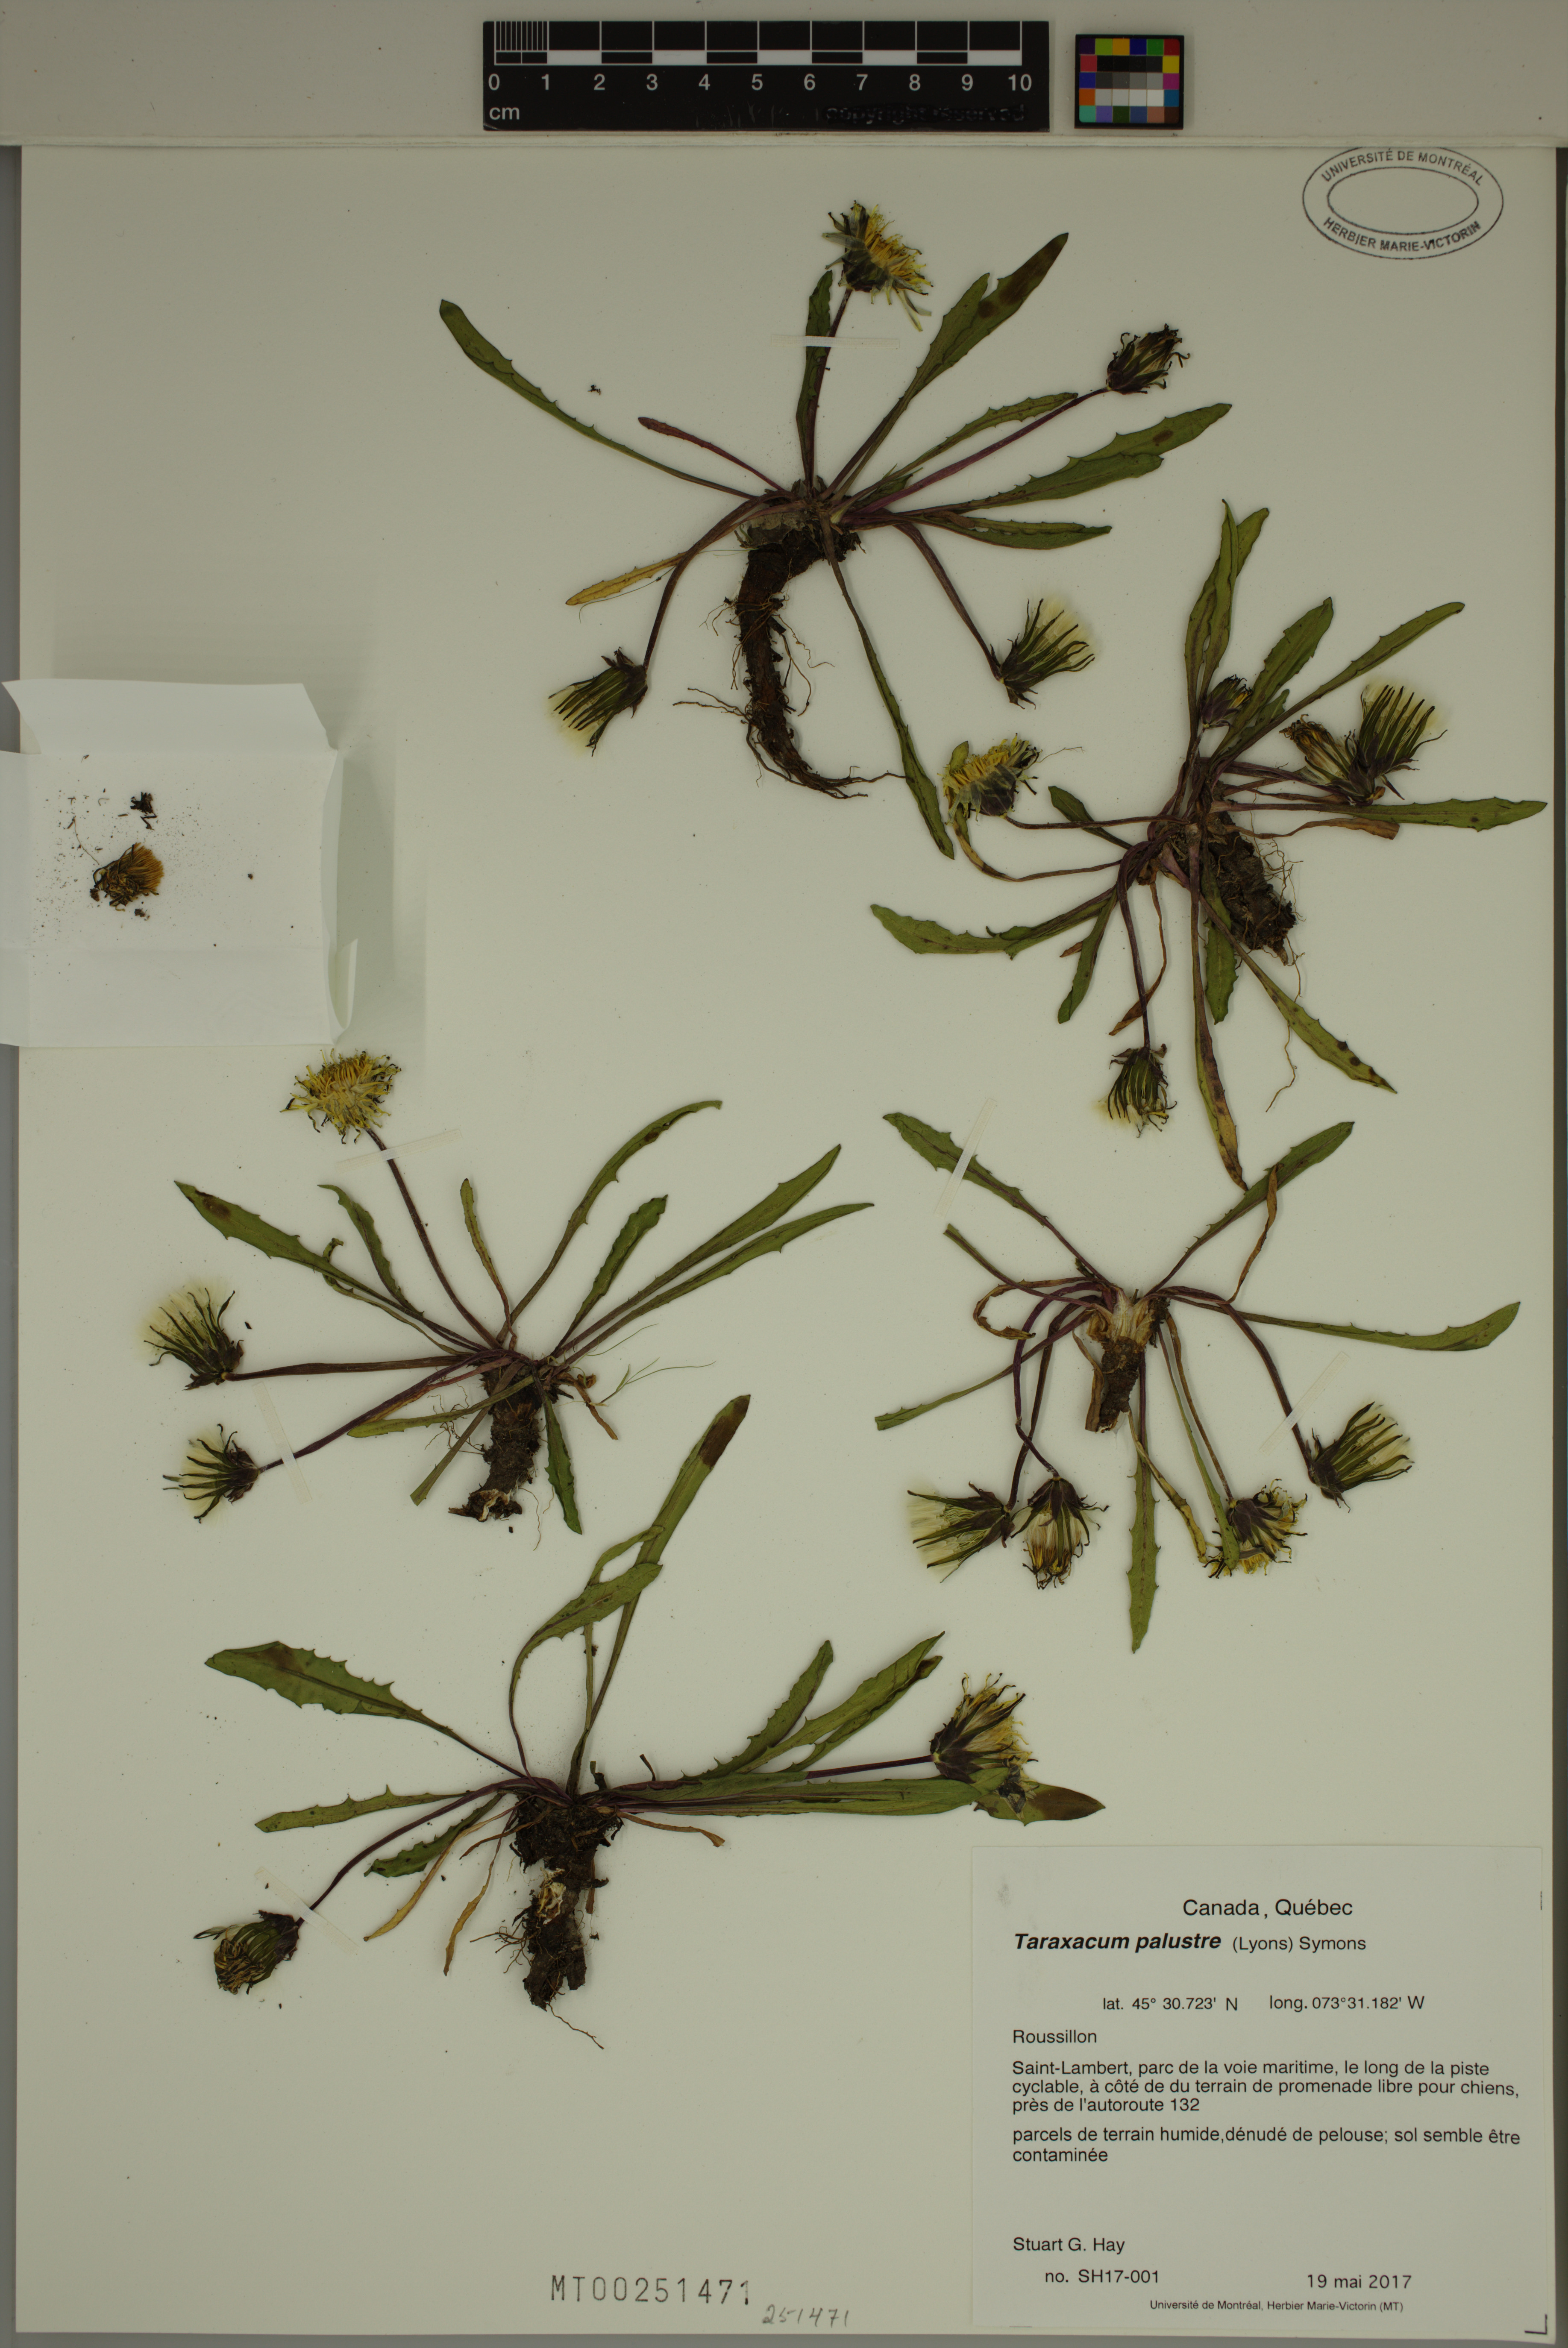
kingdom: Plantae
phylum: Tracheophyta
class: Magnoliopsida
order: Asterales
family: Asteraceae
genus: Taraxacum
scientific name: Taraxacum palustre
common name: Marsh dandelion
